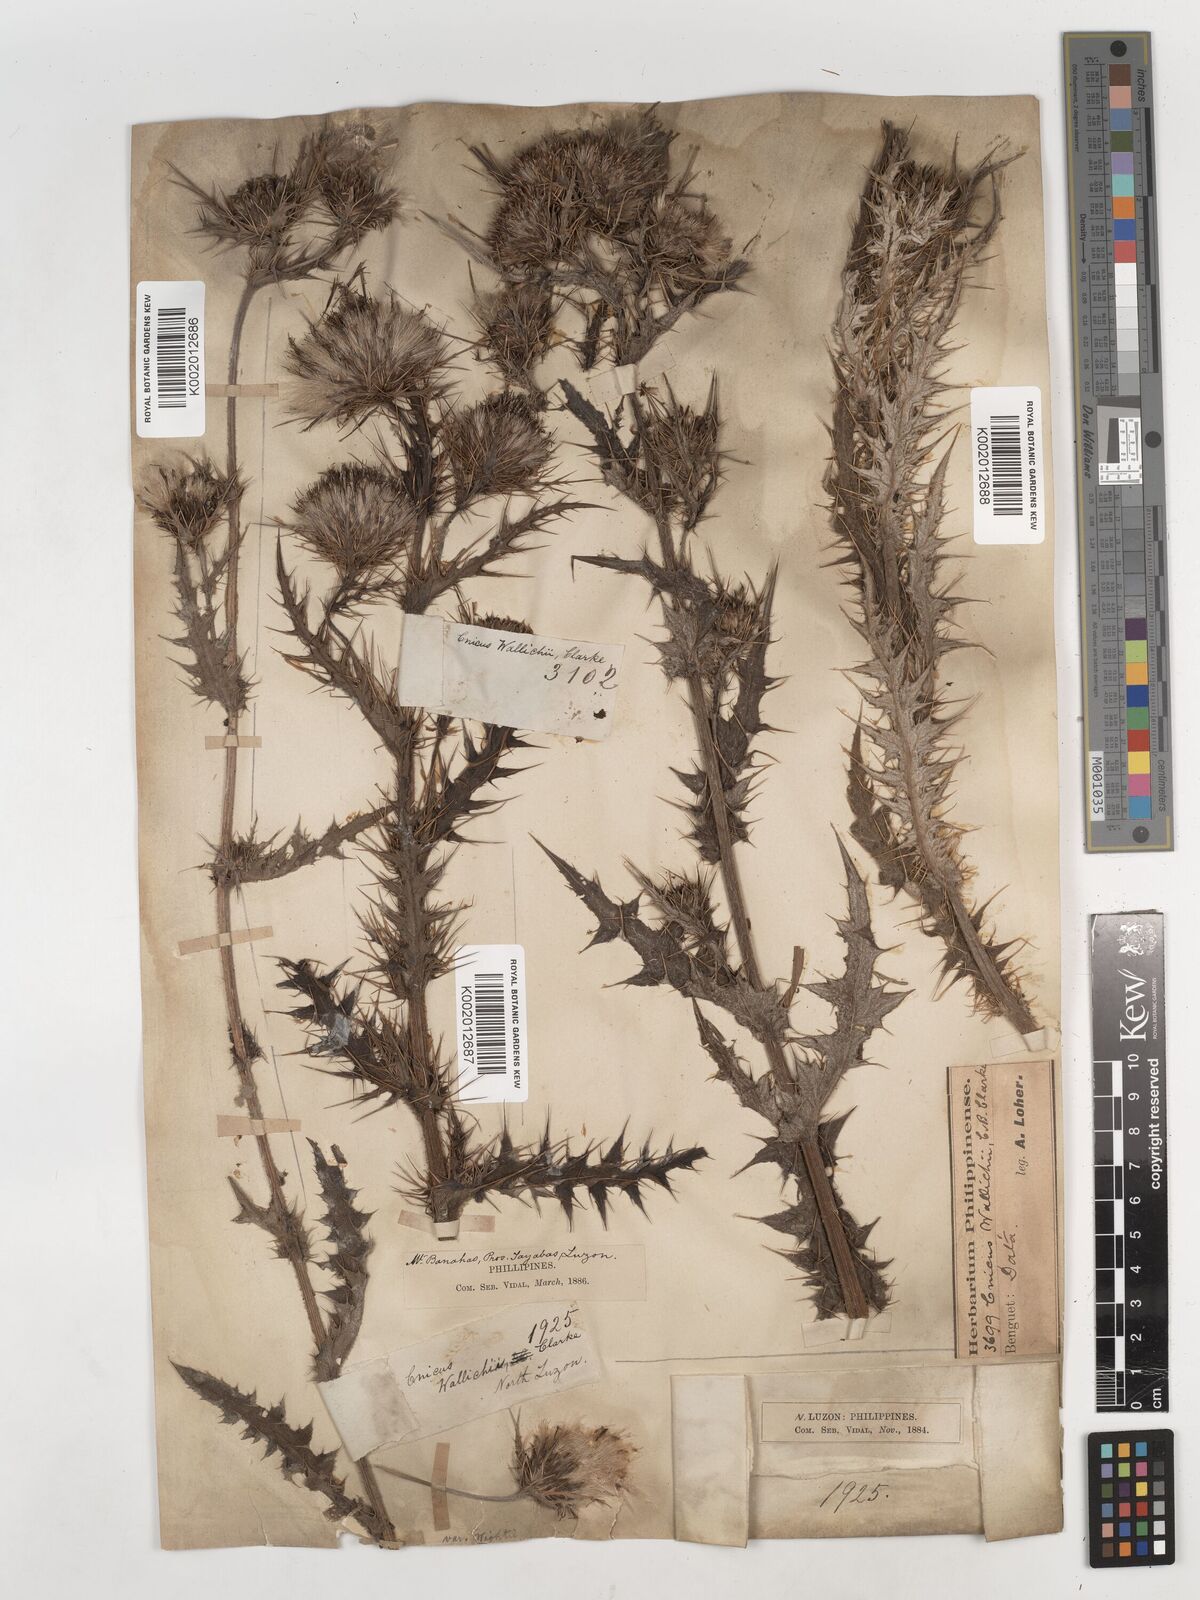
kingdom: Plantae
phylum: Tracheophyta
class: Magnoliopsida
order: Asterales
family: Asteraceae
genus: Cirsium
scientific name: Cirsium wallichii
